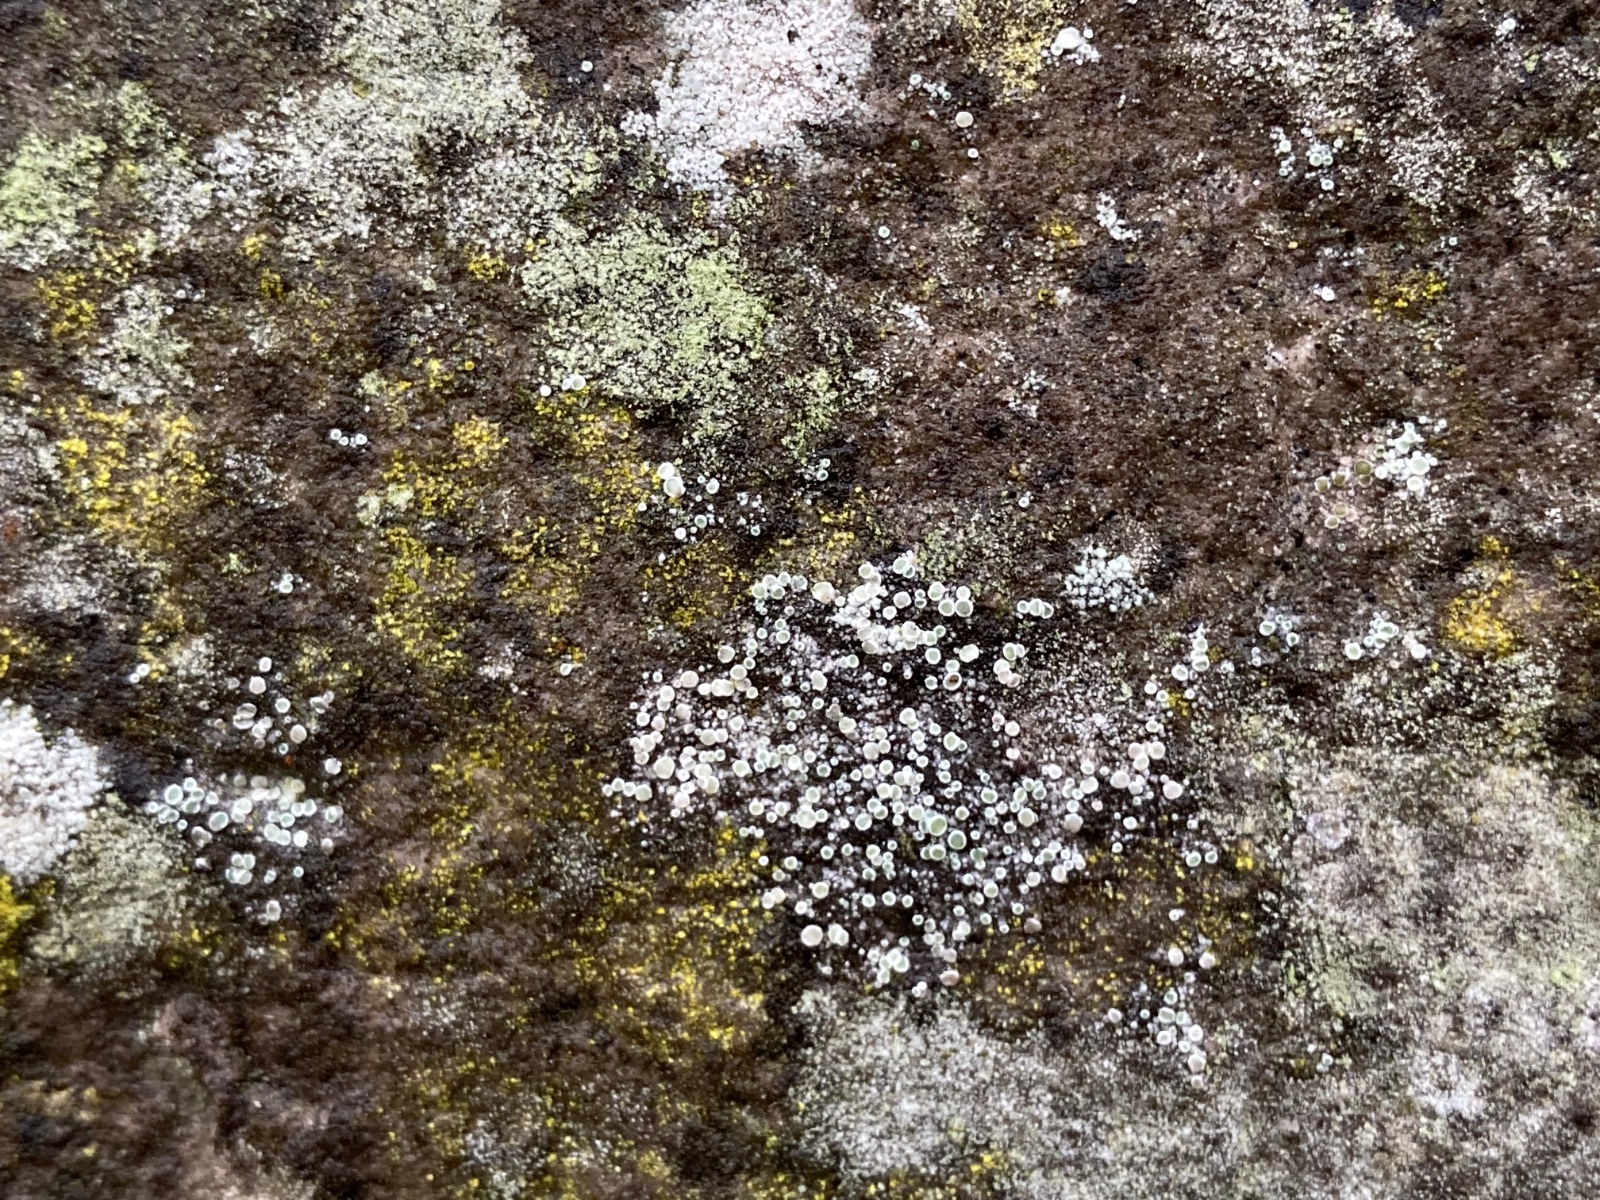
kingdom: Fungi
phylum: Ascomycota
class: Lecanoromycetes
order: Lecanorales
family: Lecanoraceae
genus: Polyozosia
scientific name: Polyozosia dispersa
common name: spredt kantskivelav
